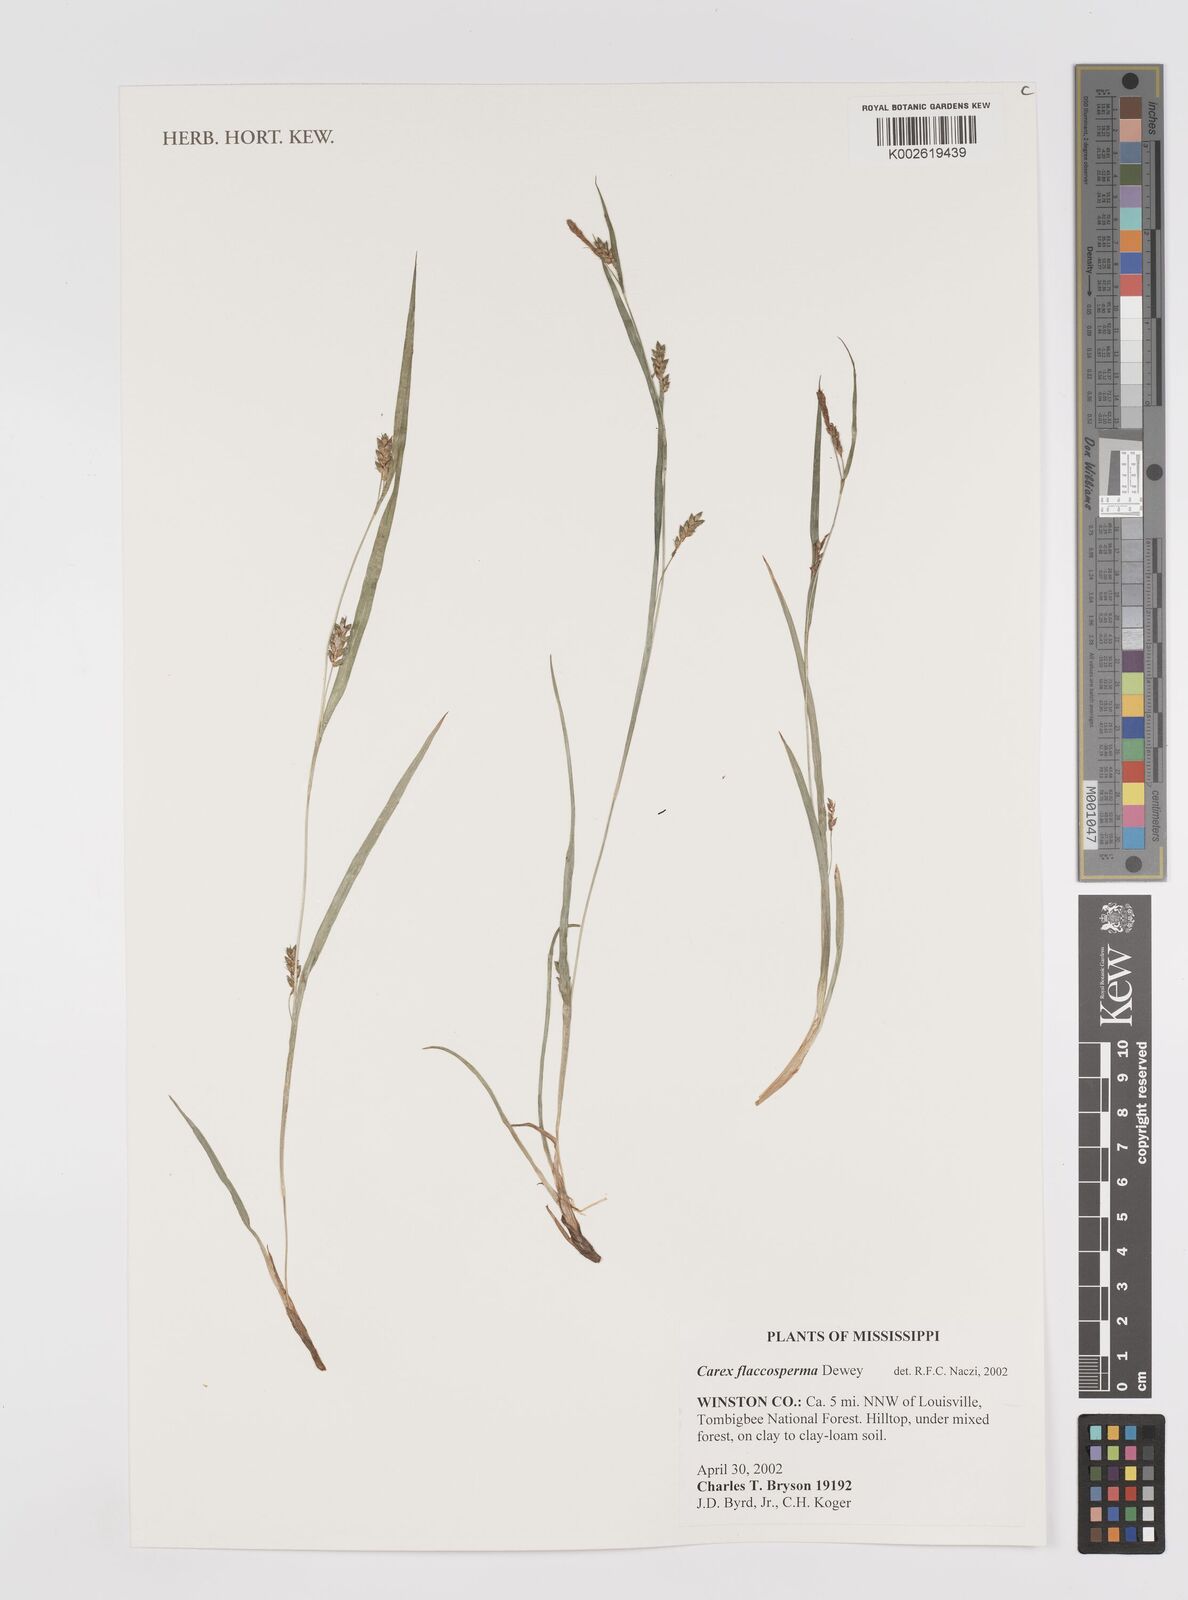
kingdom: Plantae
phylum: Tracheophyta
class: Liliopsida
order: Poales
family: Cyperaceae
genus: Carex
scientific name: Carex flaccosperma
